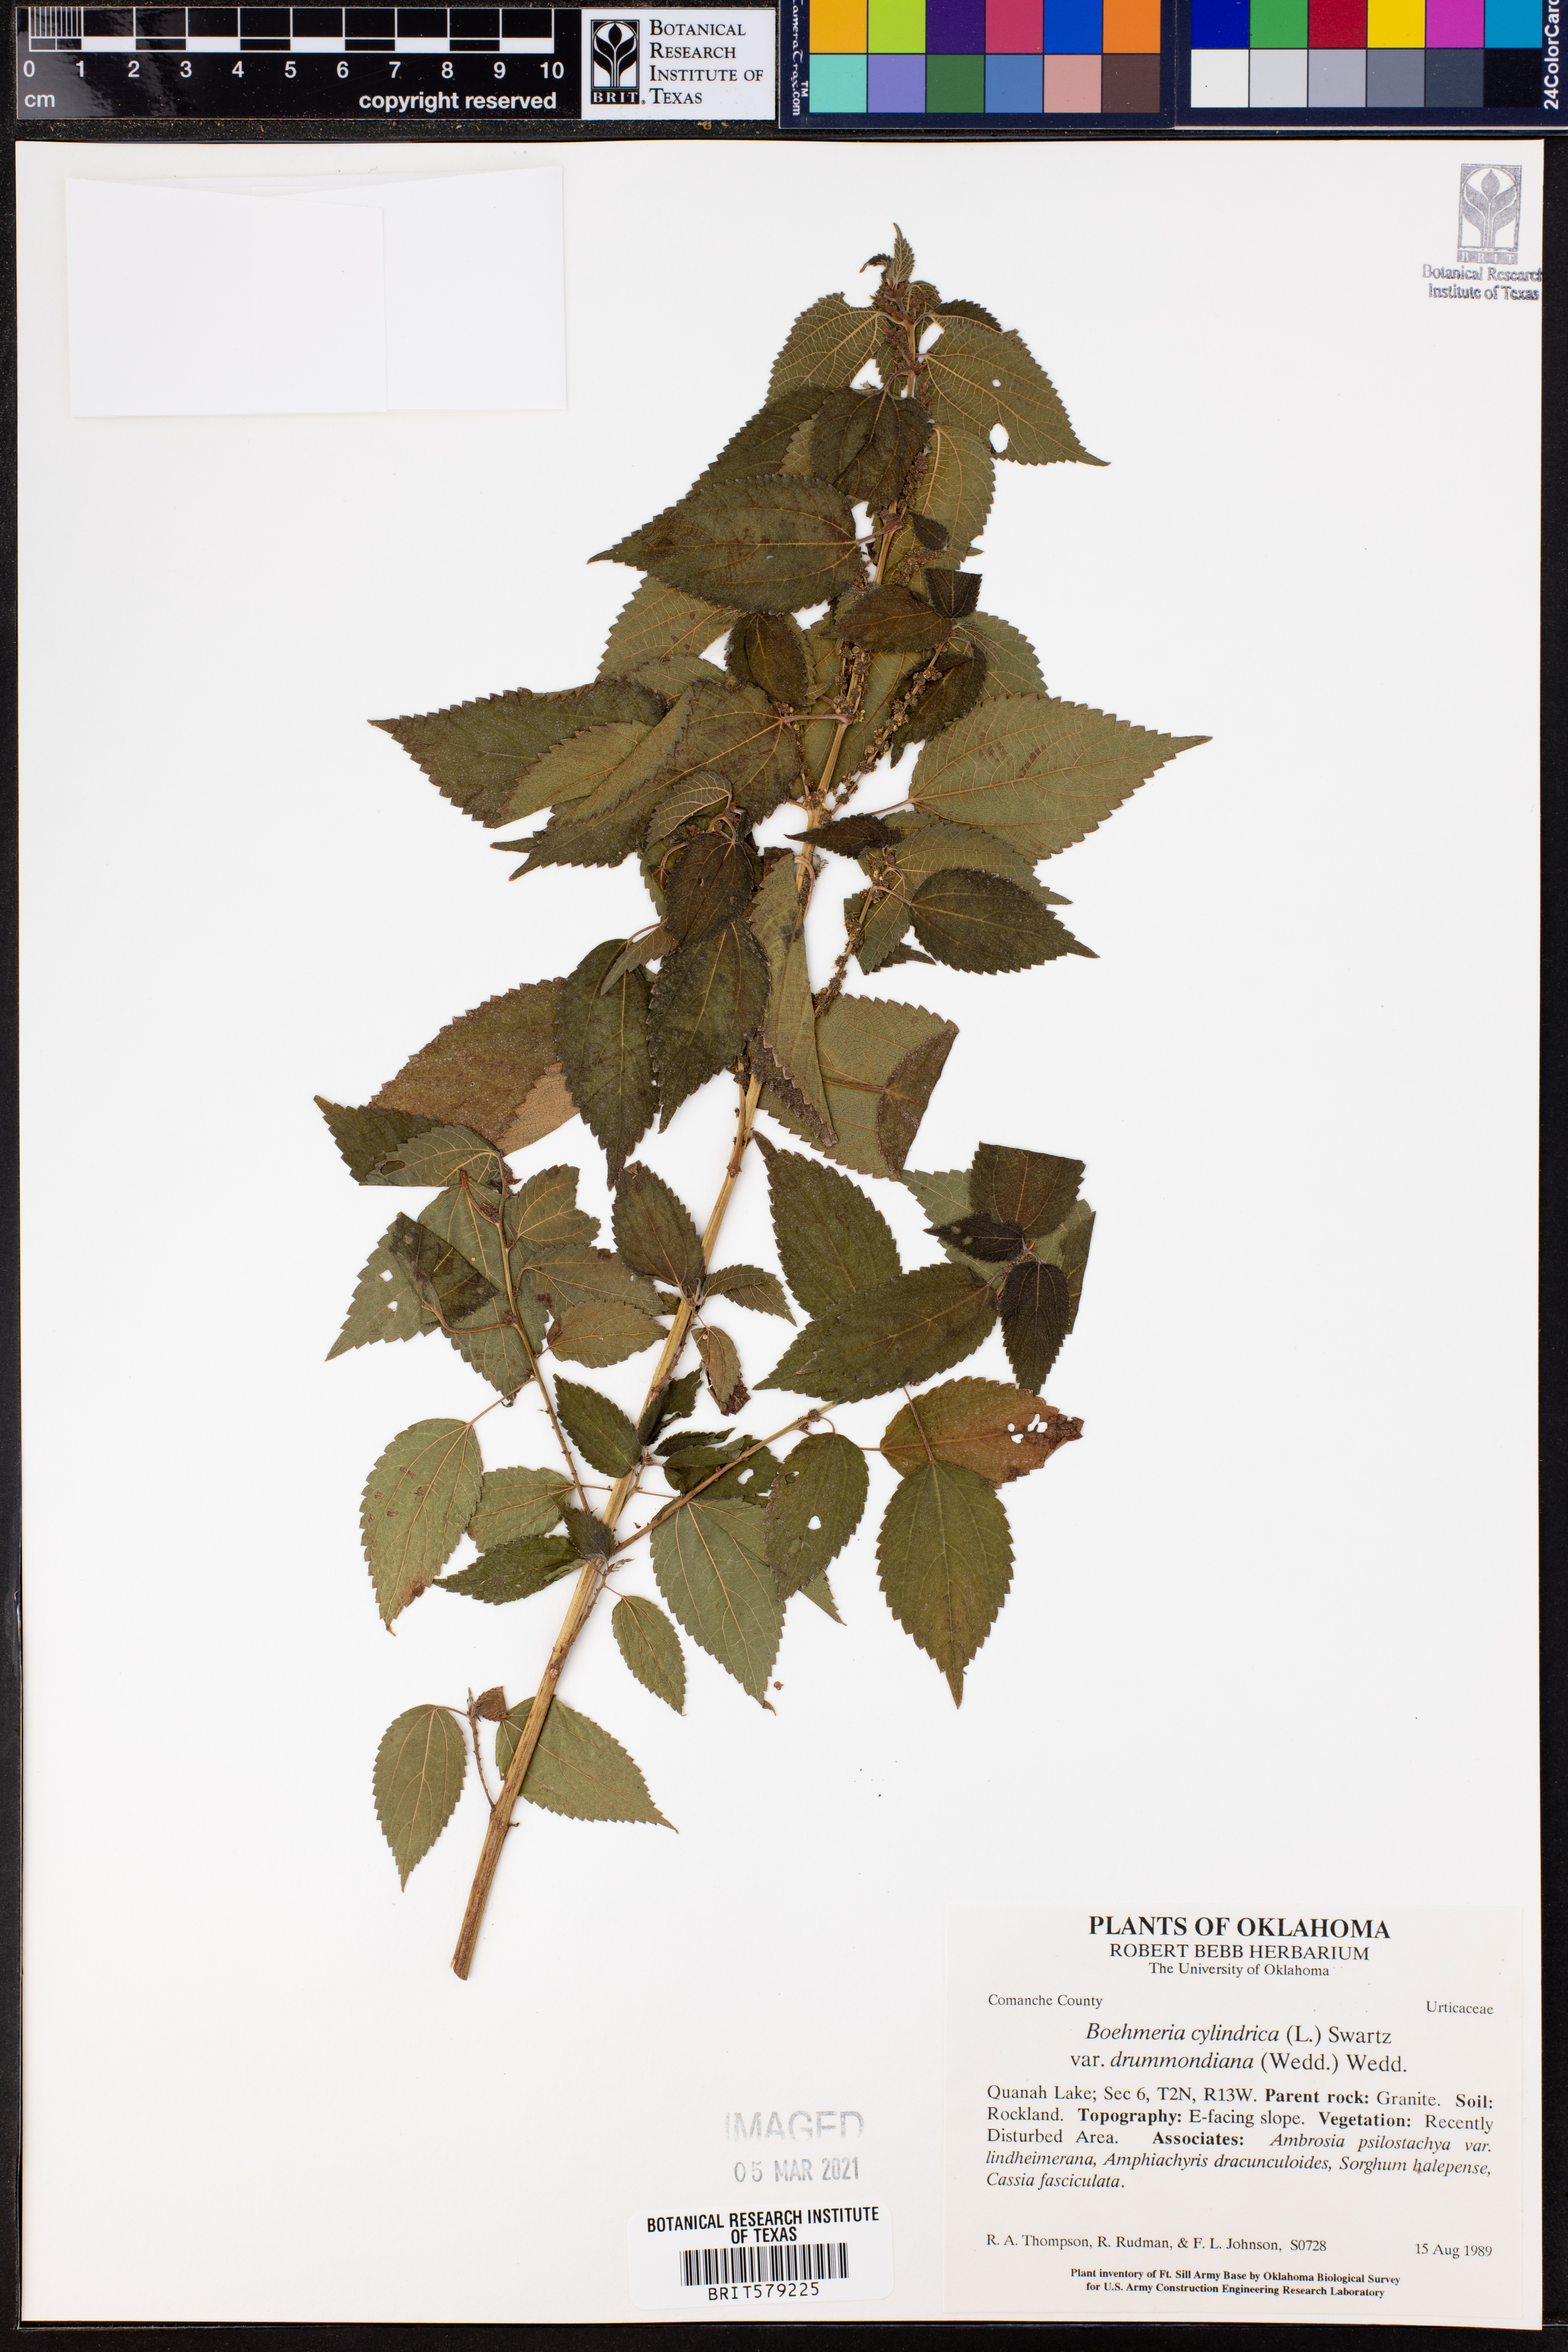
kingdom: Plantae
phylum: Tracheophyta
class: Magnoliopsida
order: Rosales
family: Urticaceae
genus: Boehmeria
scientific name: Boehmeria cylindrica
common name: Bog-hemp
